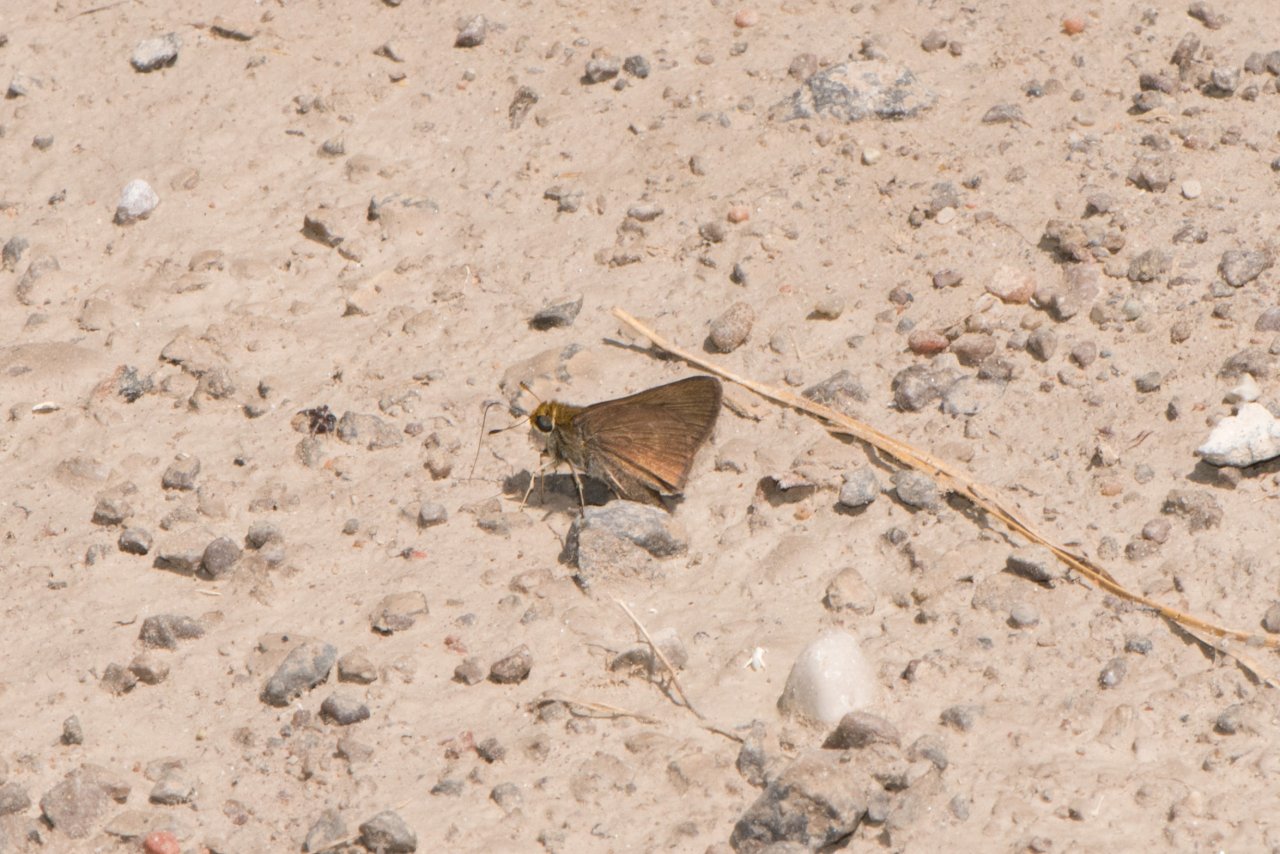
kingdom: Animalia
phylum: Arthropoda
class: Insecta
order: Lepidoptera
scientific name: Lepidoptera
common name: Butterflies
